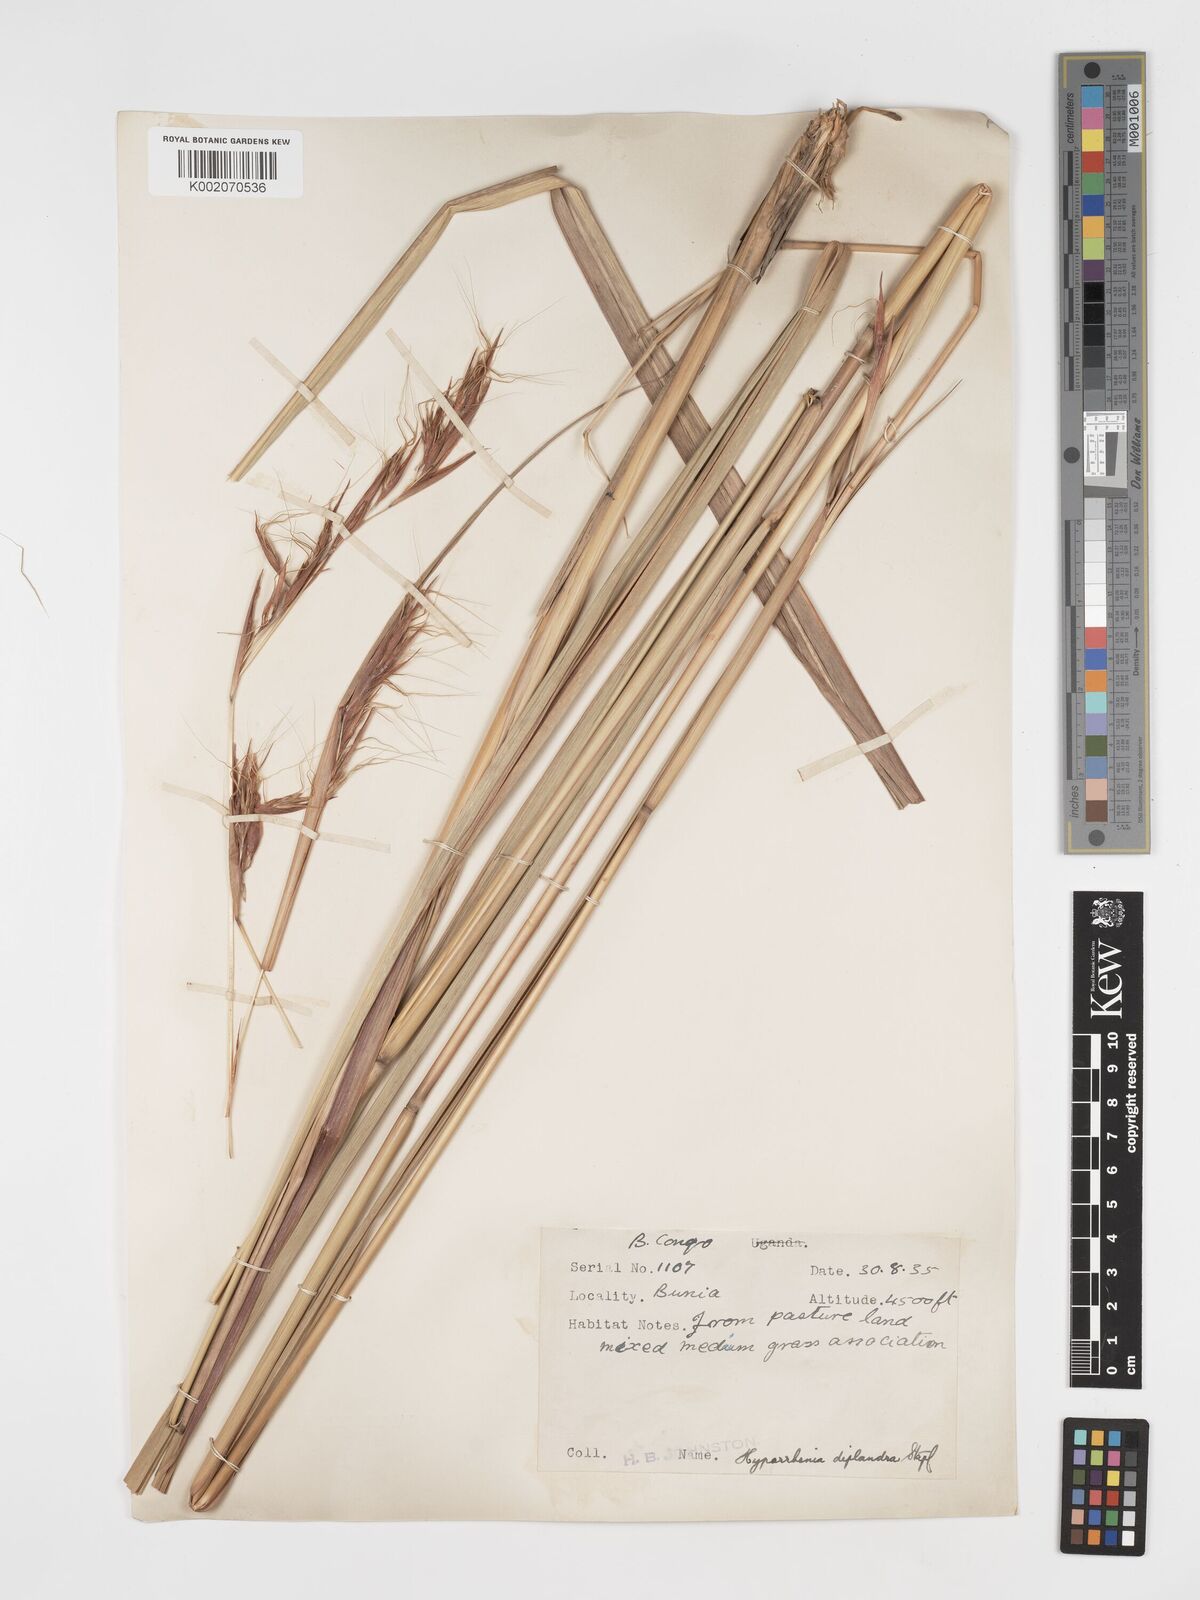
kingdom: Plantae
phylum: Tracheophyta
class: Liliopsida
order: Poales
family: Poaceae
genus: Hyparrhenia
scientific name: Hyparrhenia diplandra
